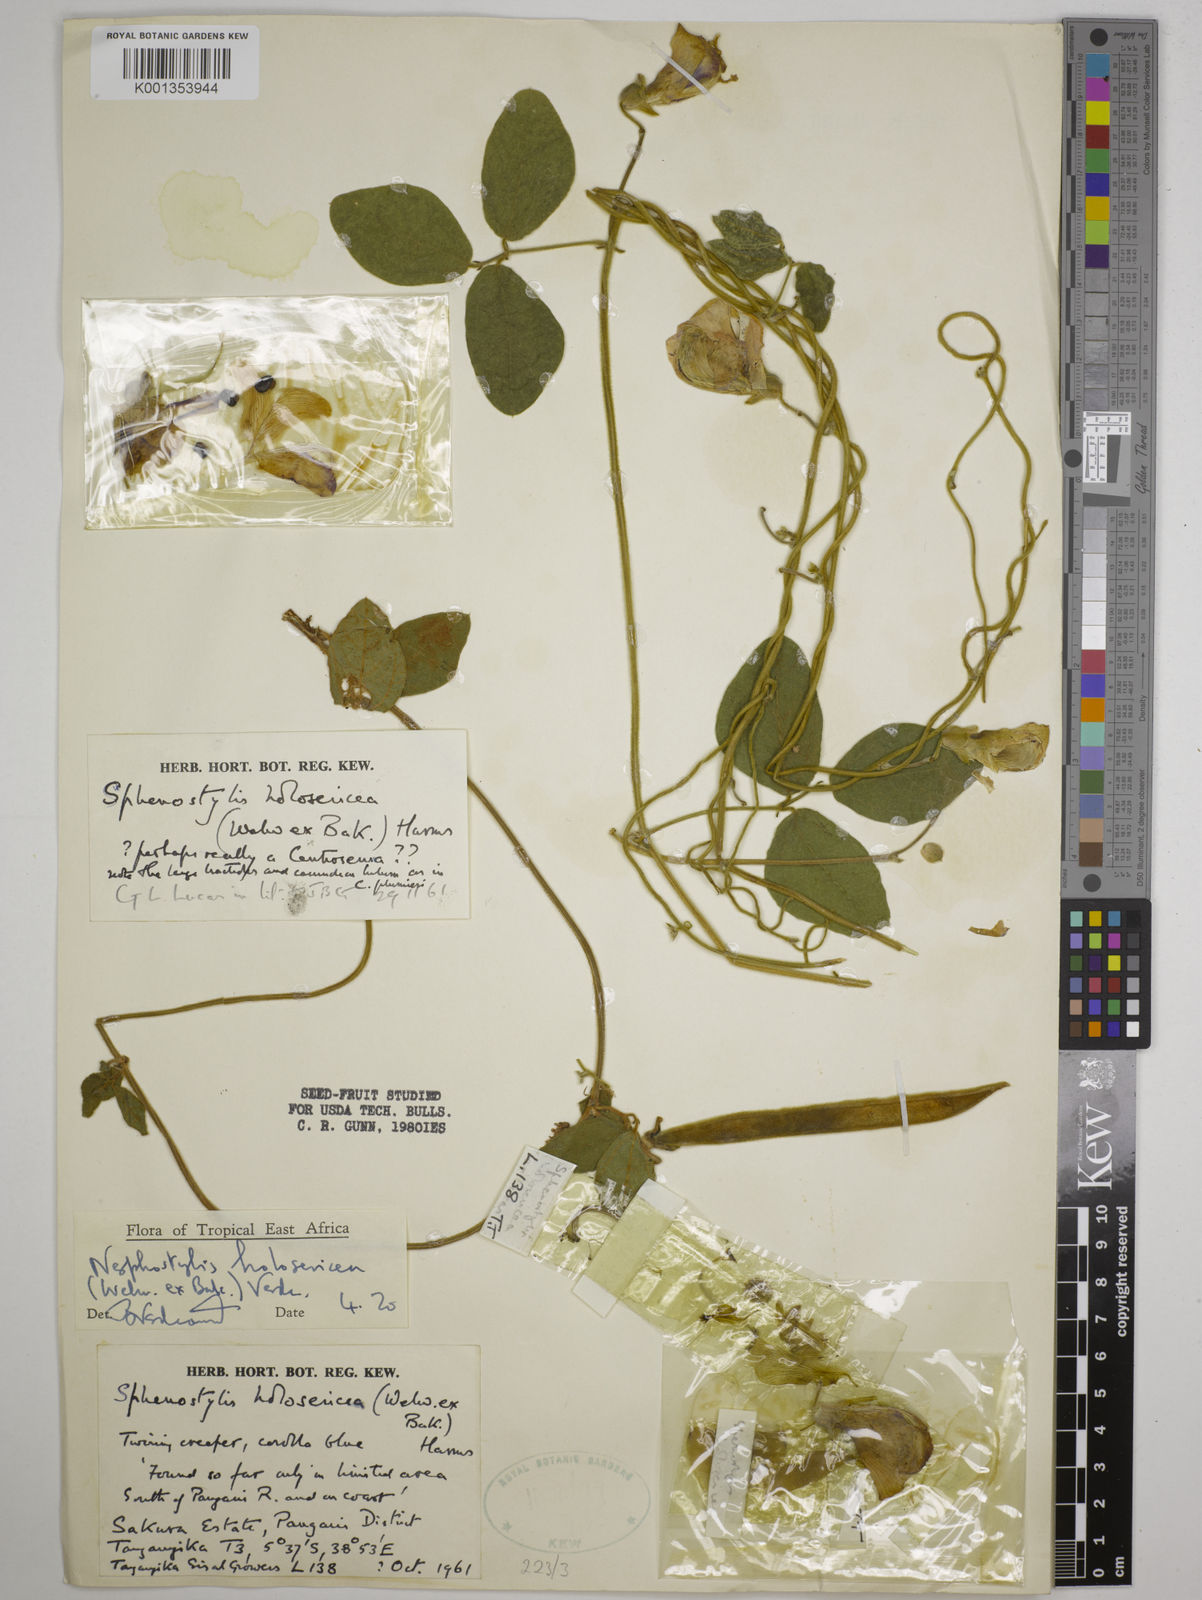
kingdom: Plantae
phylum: Tracheophyta
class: Magnoliopsida
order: Fabales
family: Fabaceae
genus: Nesphostylis
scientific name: Nesphostylis holosericea
